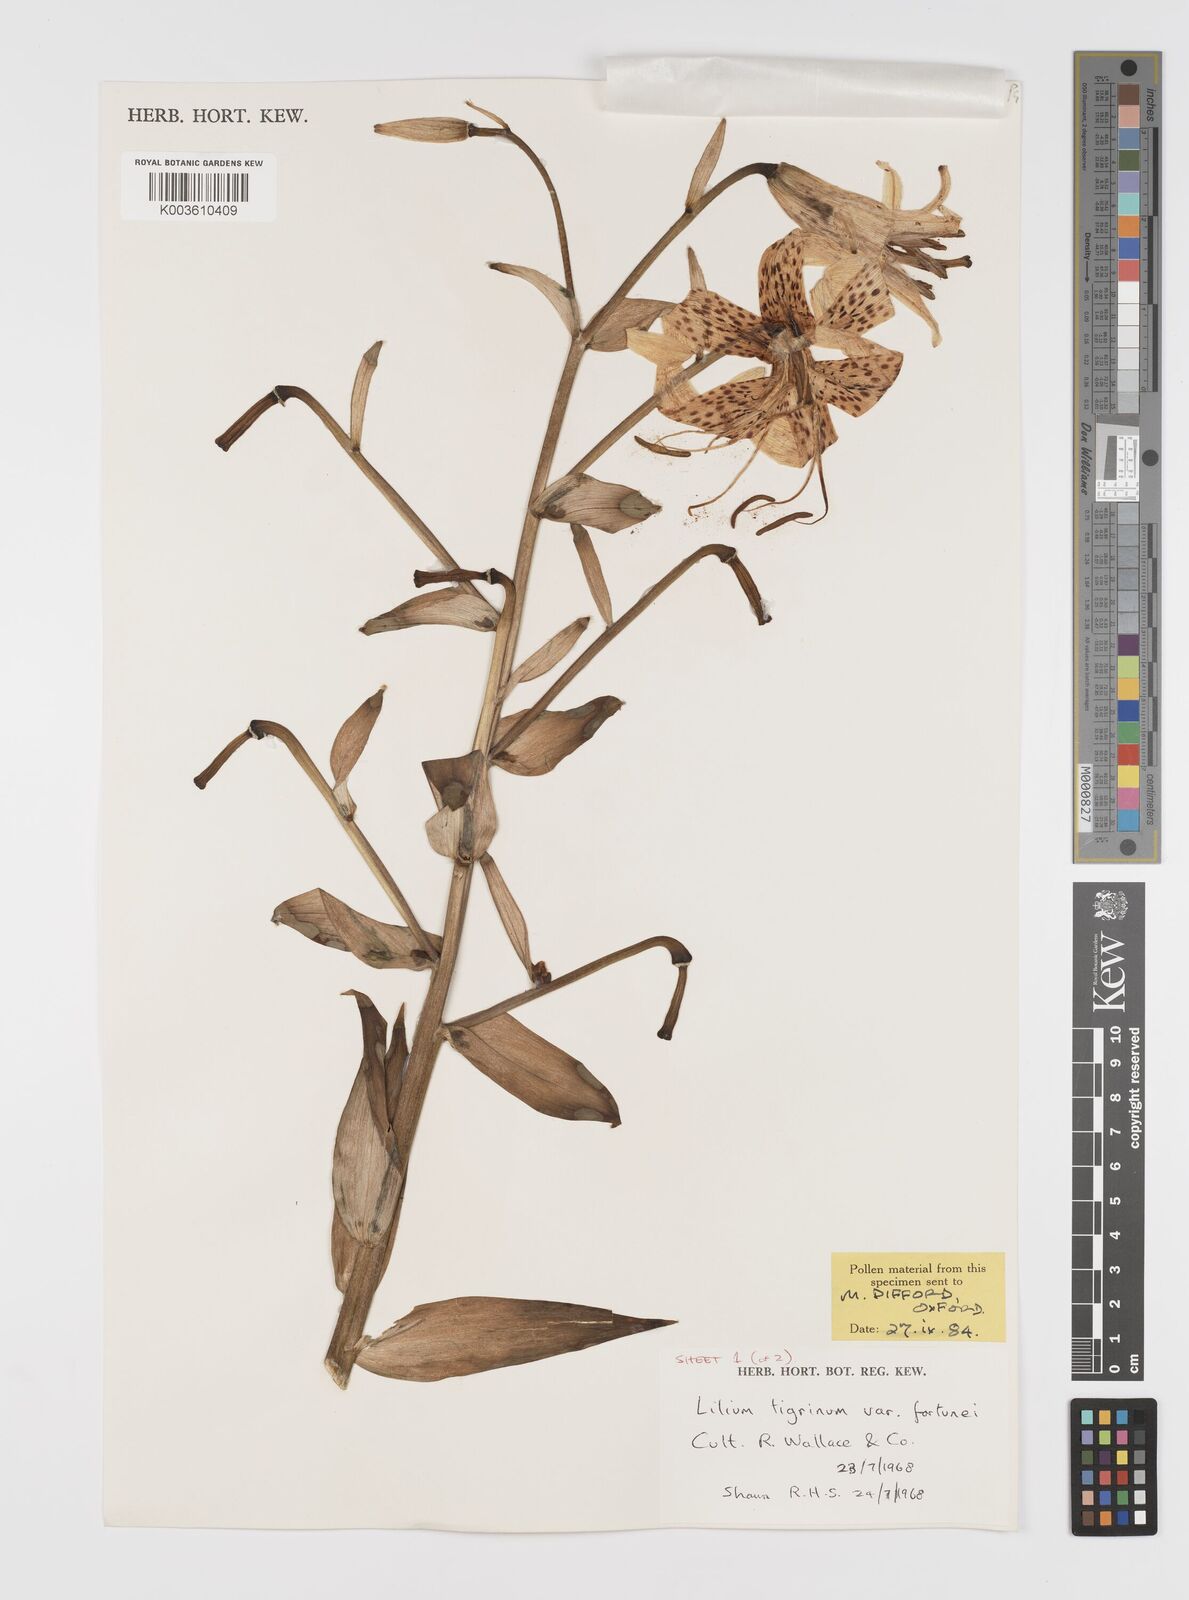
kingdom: Plantae
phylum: Tracheophyta
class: Liliopsida
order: Liliales
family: Liliaceae
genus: Lilium
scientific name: Lilium lancifolium
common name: Tiger lily
